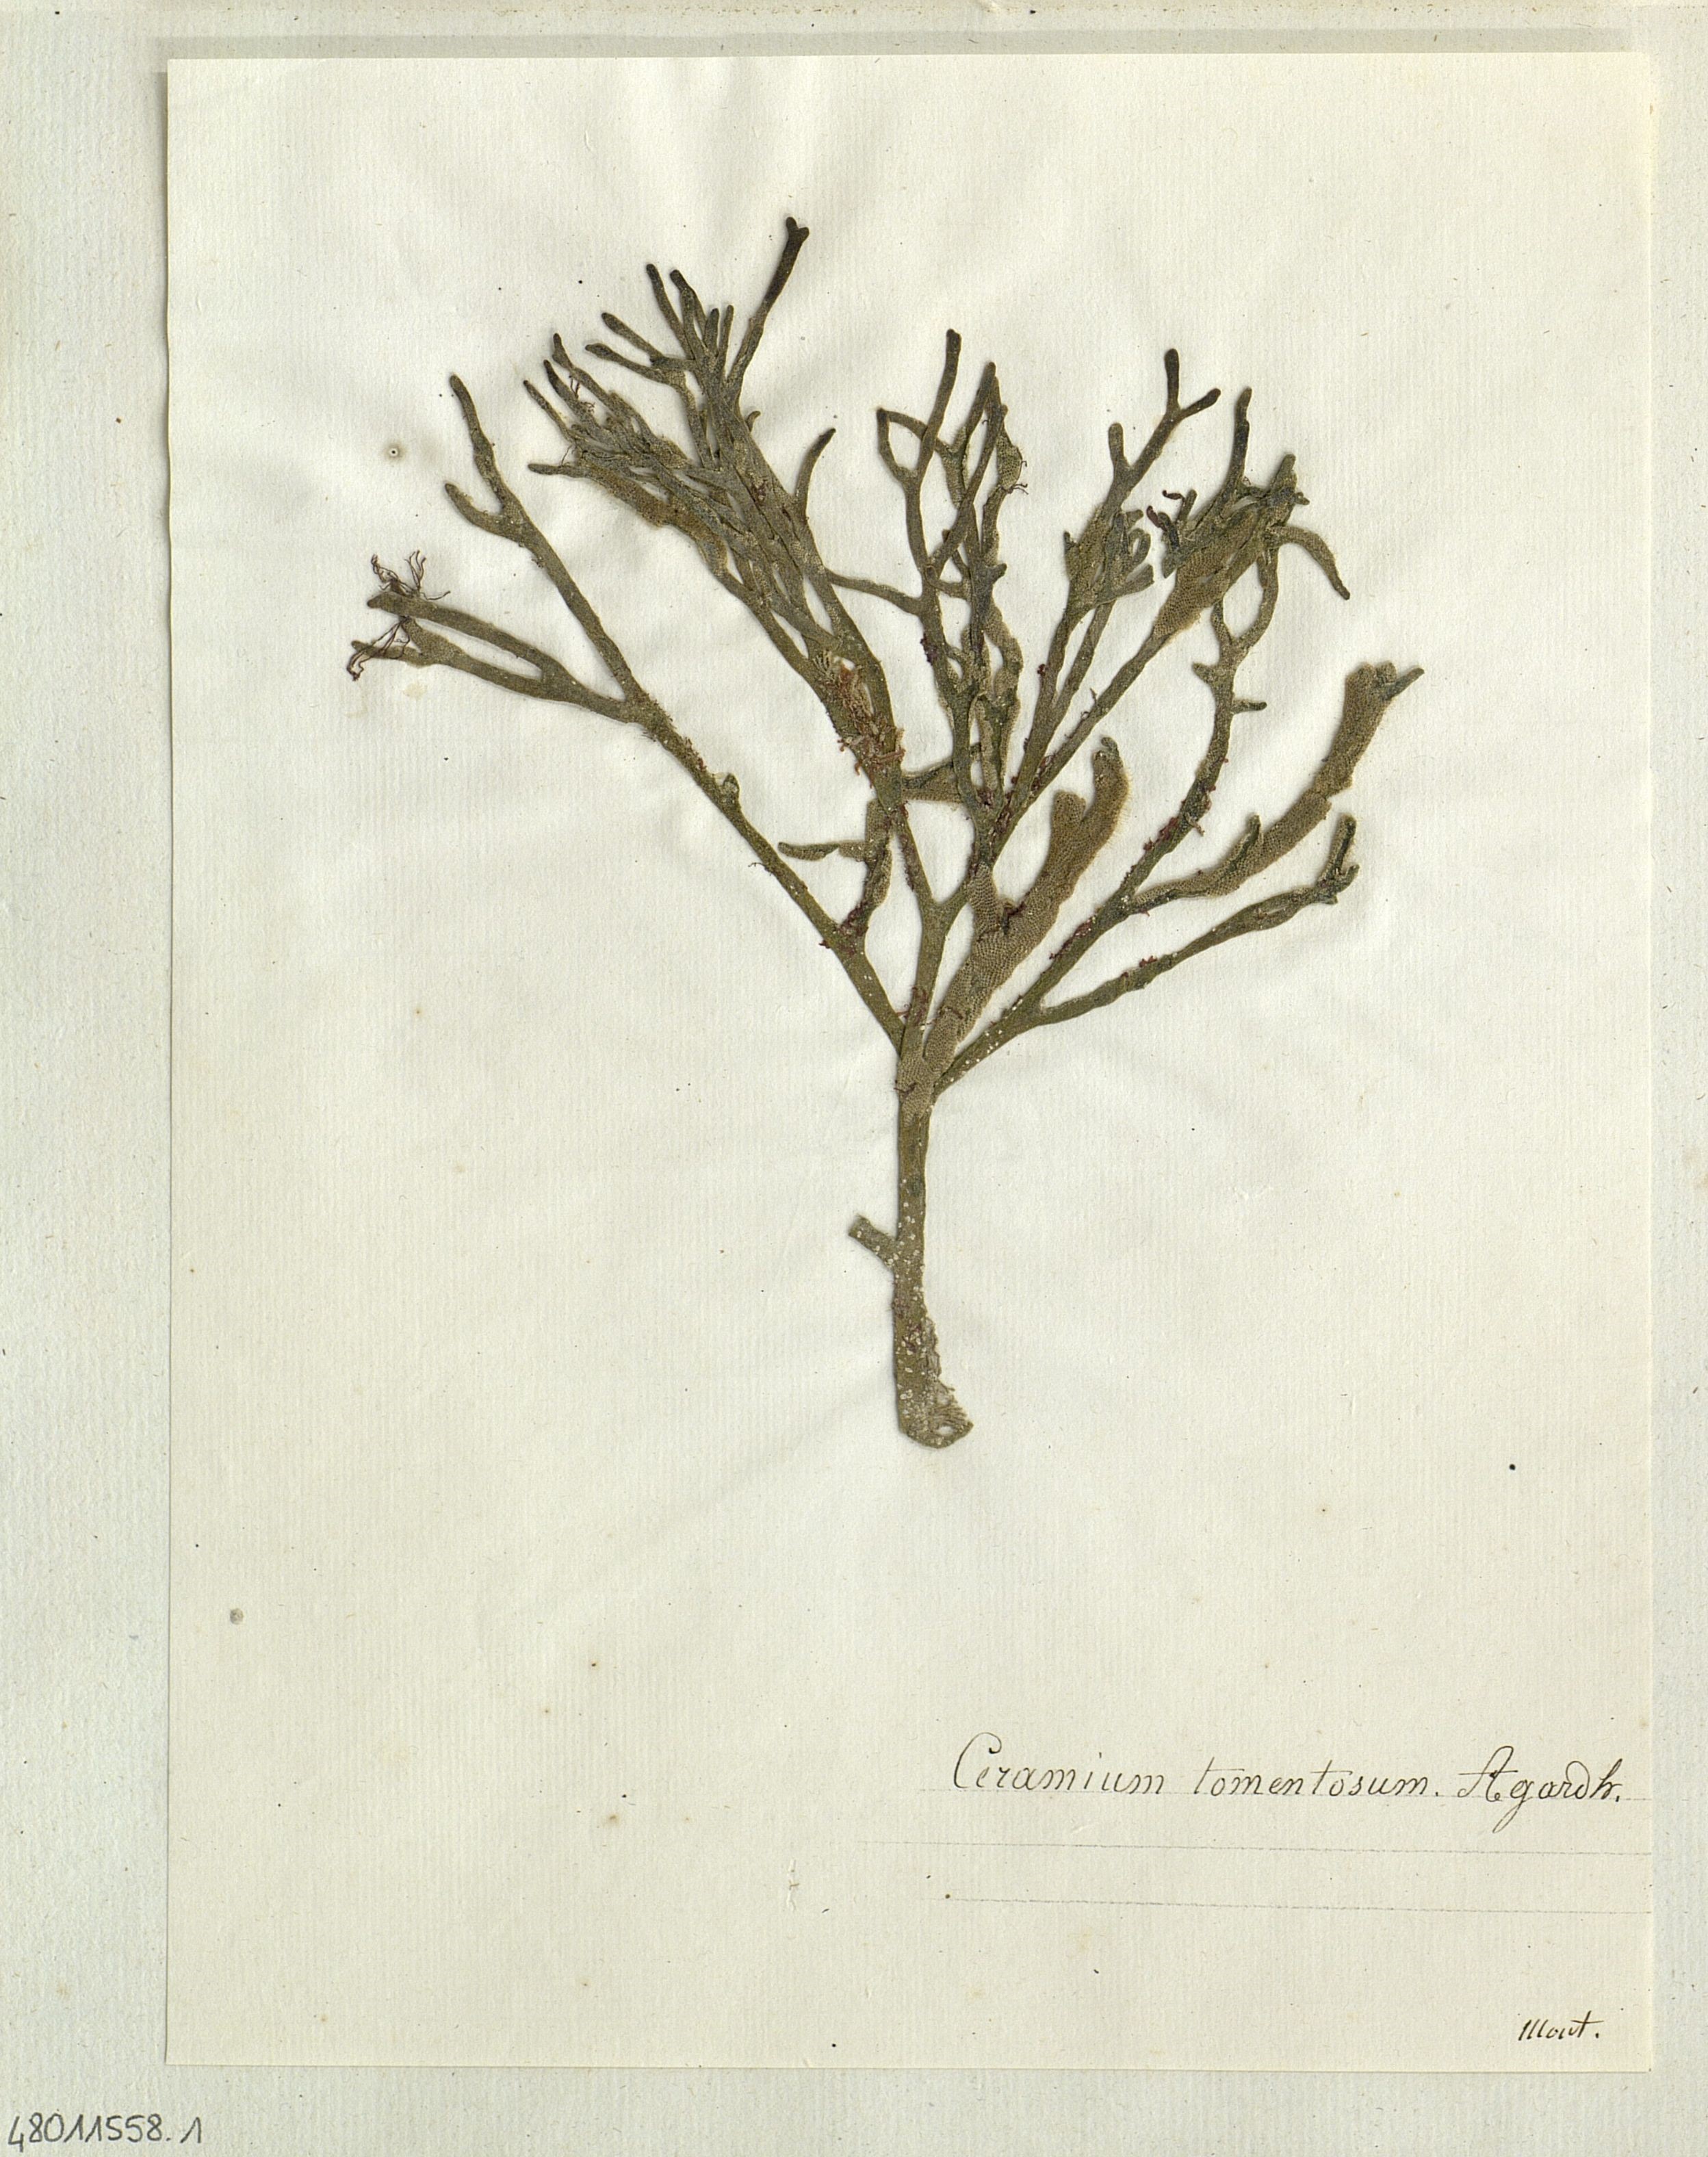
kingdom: Plantae
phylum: Rhodophyta
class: Florideophyceae
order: Ceramiales
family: Ceramiaceae
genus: Ceramium
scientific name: Ceramium
